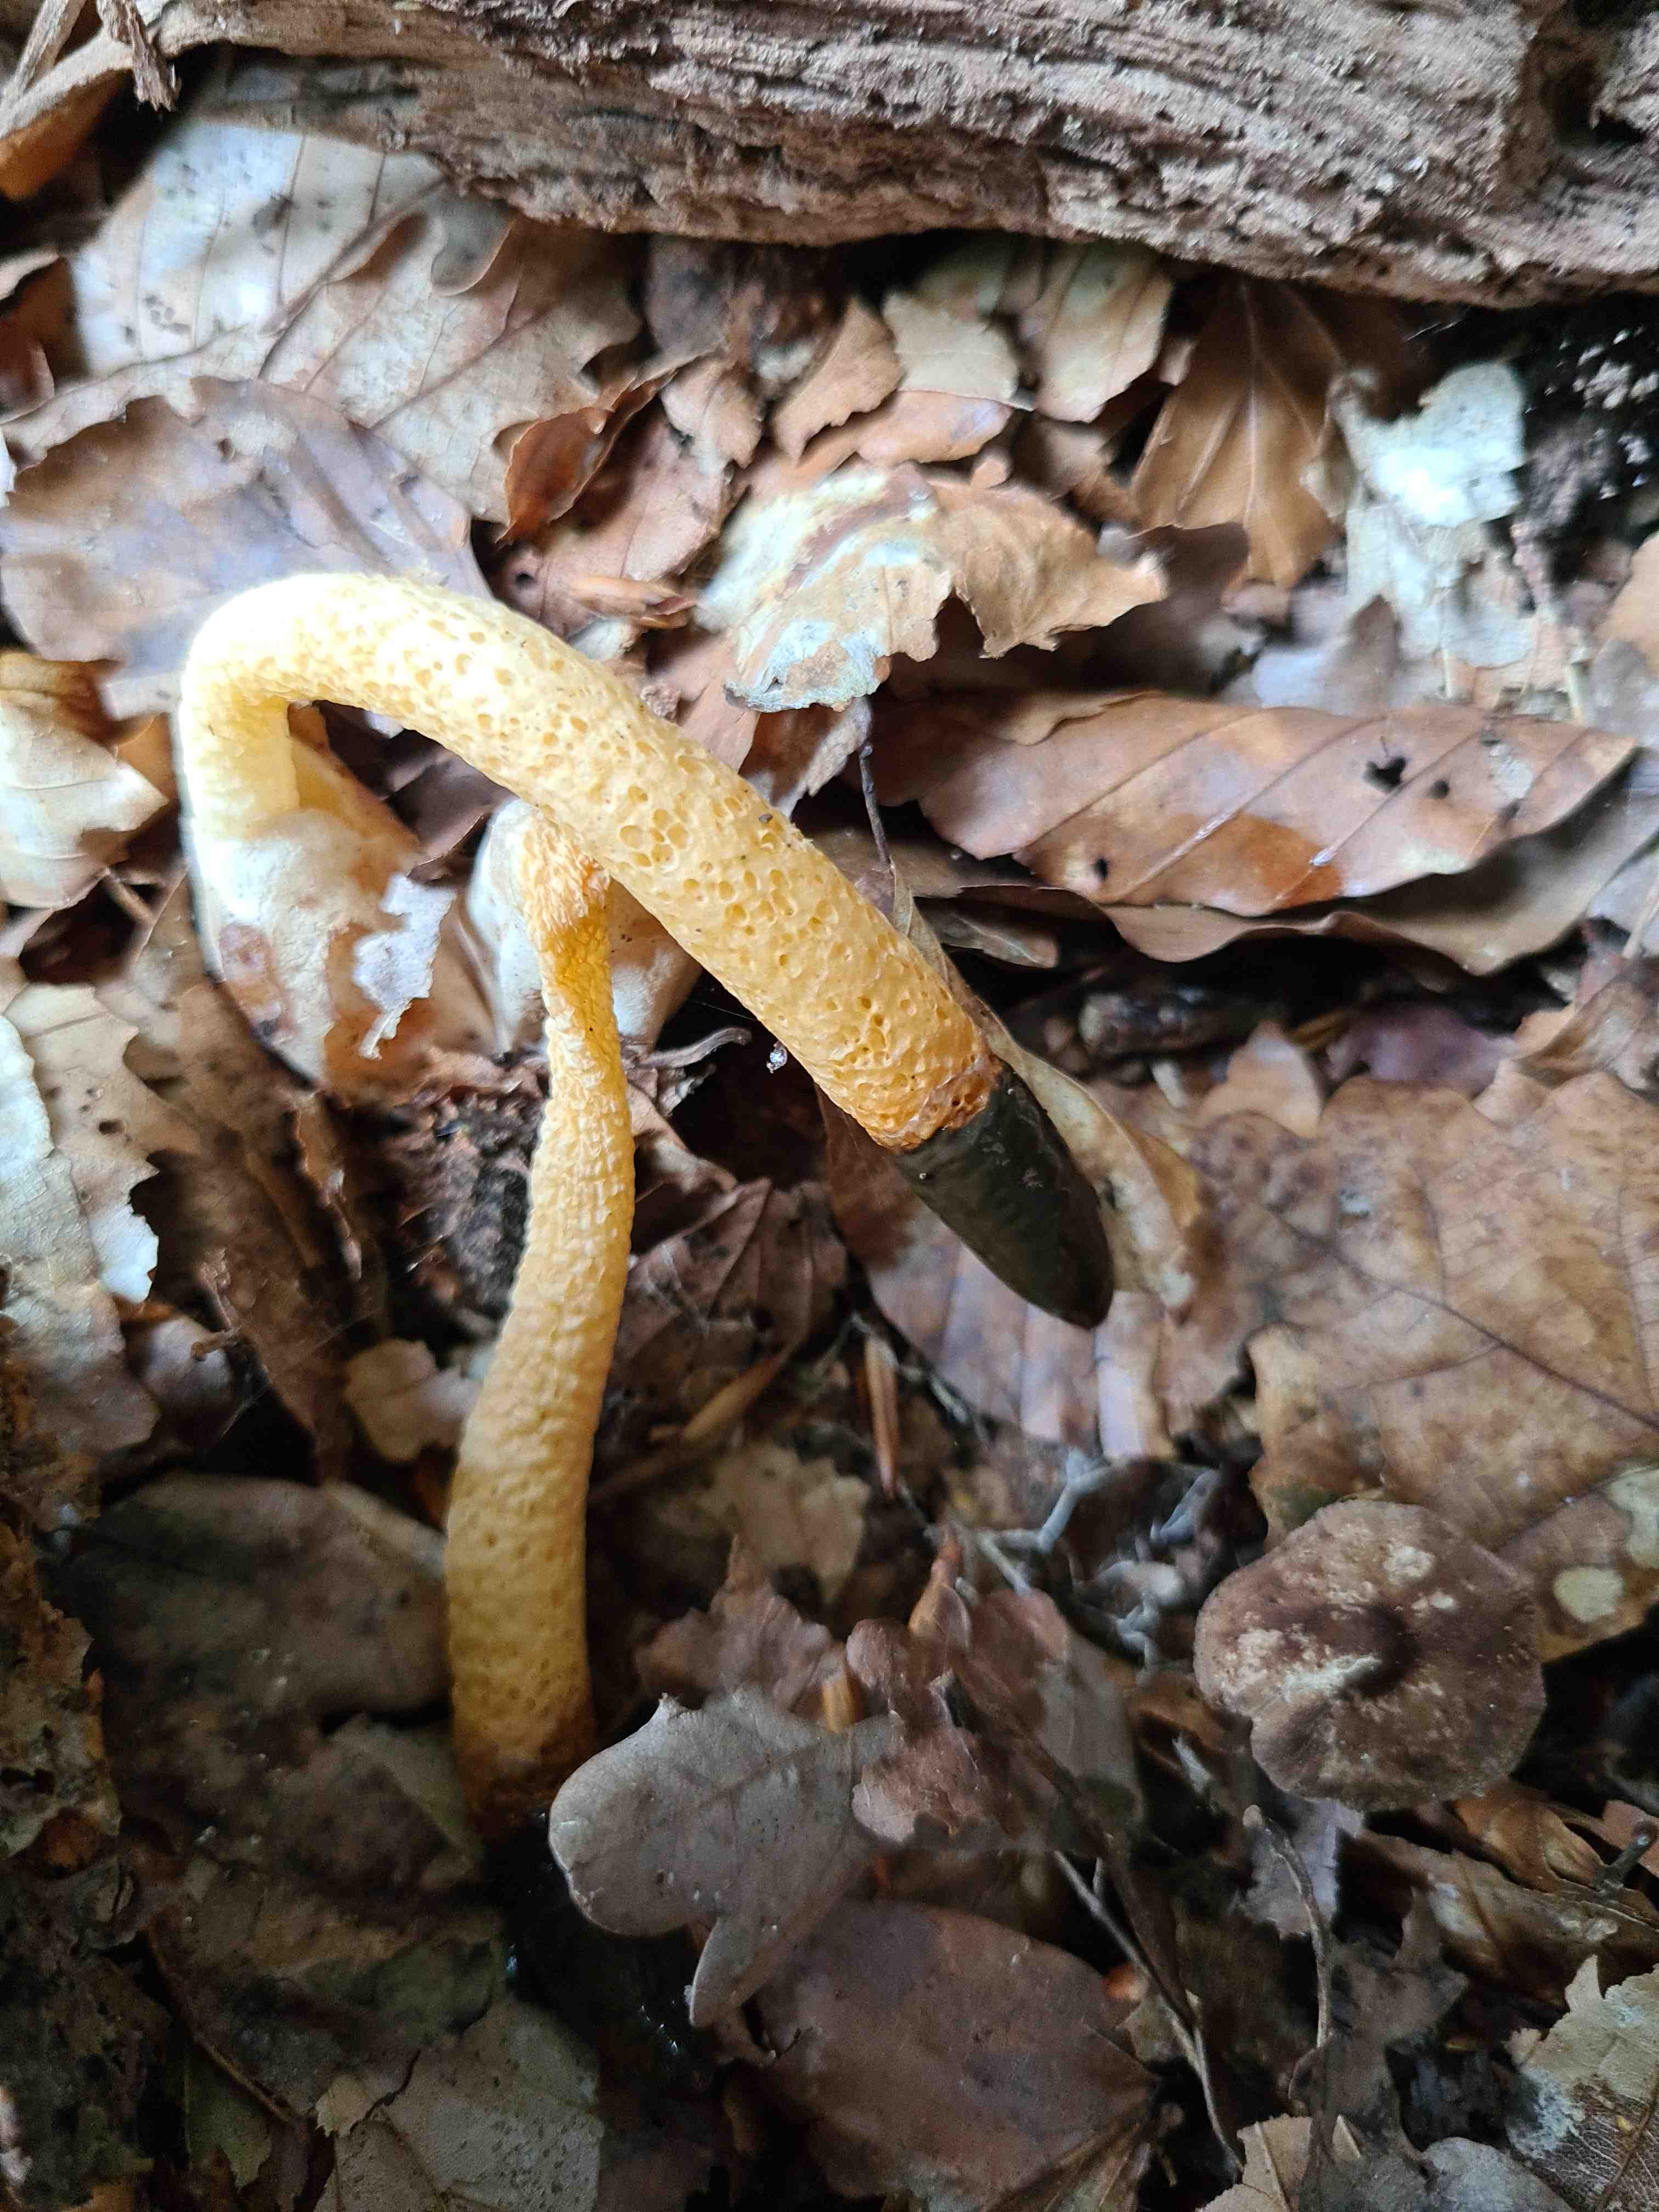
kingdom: Fungi
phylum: Basidiomycota
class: Agaricomycetes
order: Phallales
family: Phallaceae
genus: Mutinus
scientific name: Mutinus caninus
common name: hunde-stinksvamp
